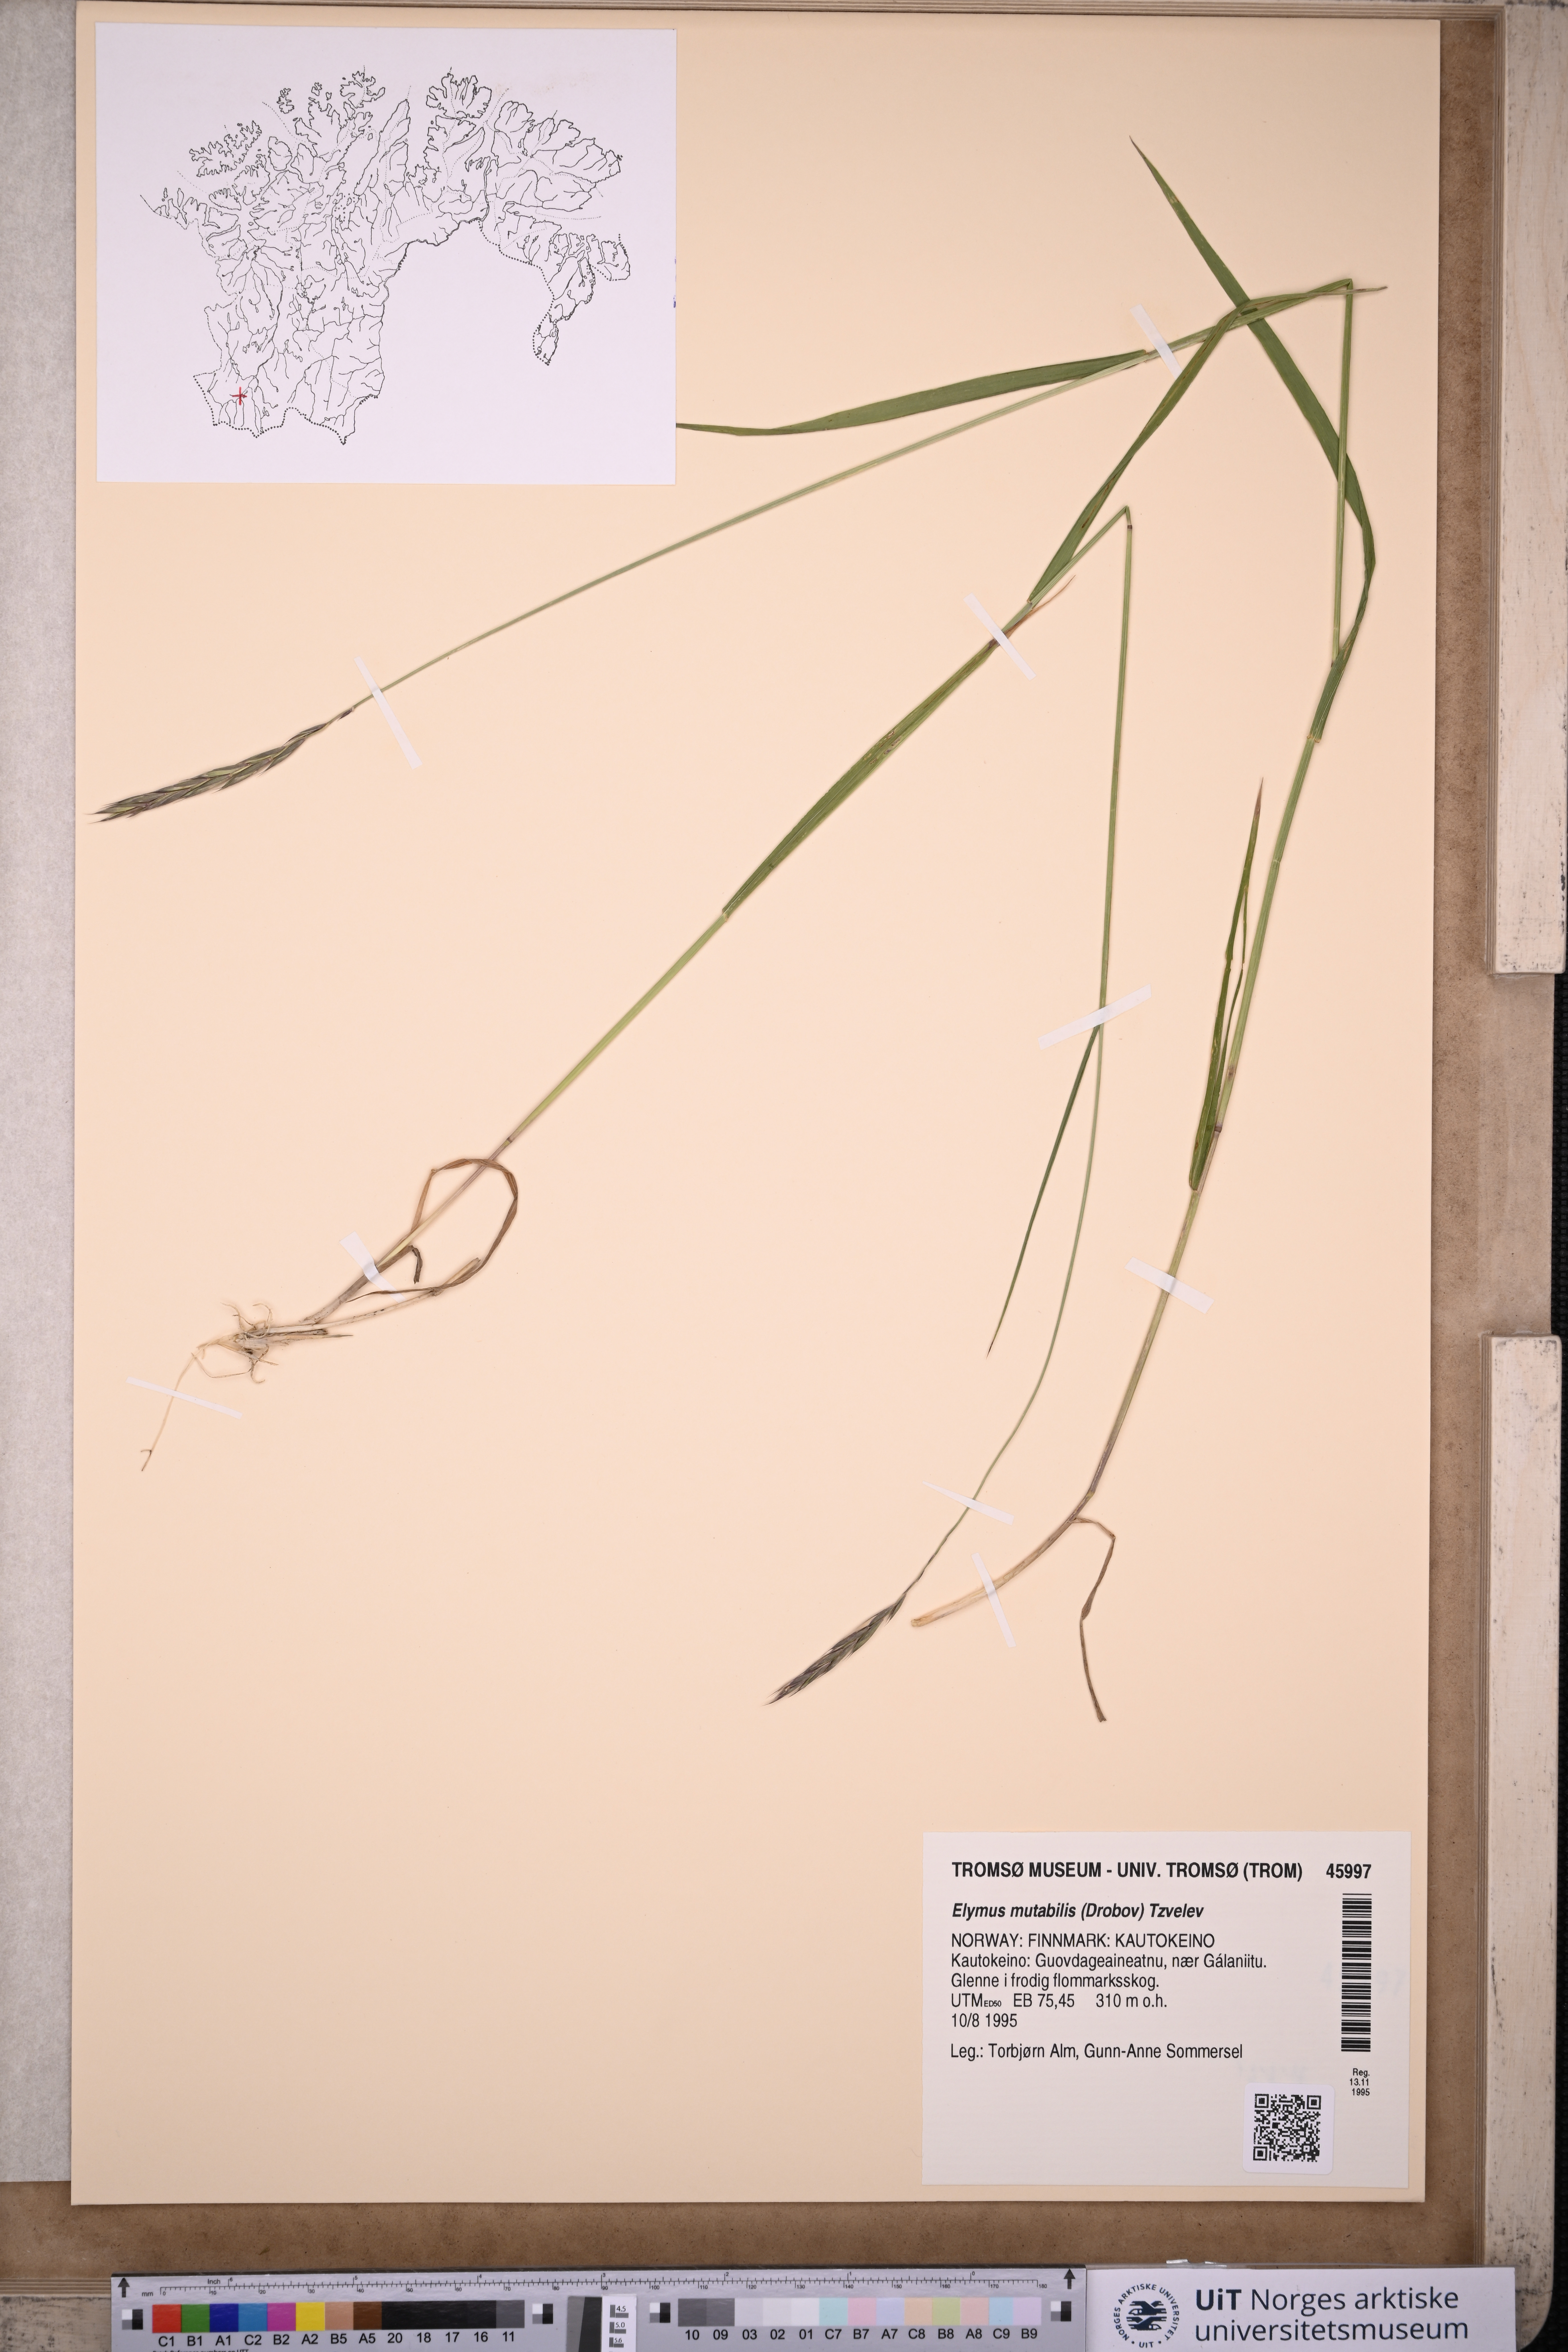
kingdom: Plantae
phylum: Tracheophyta
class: Liliopsida
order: Poales
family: Poaceae
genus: Elymus
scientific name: Elymus mutabilis
